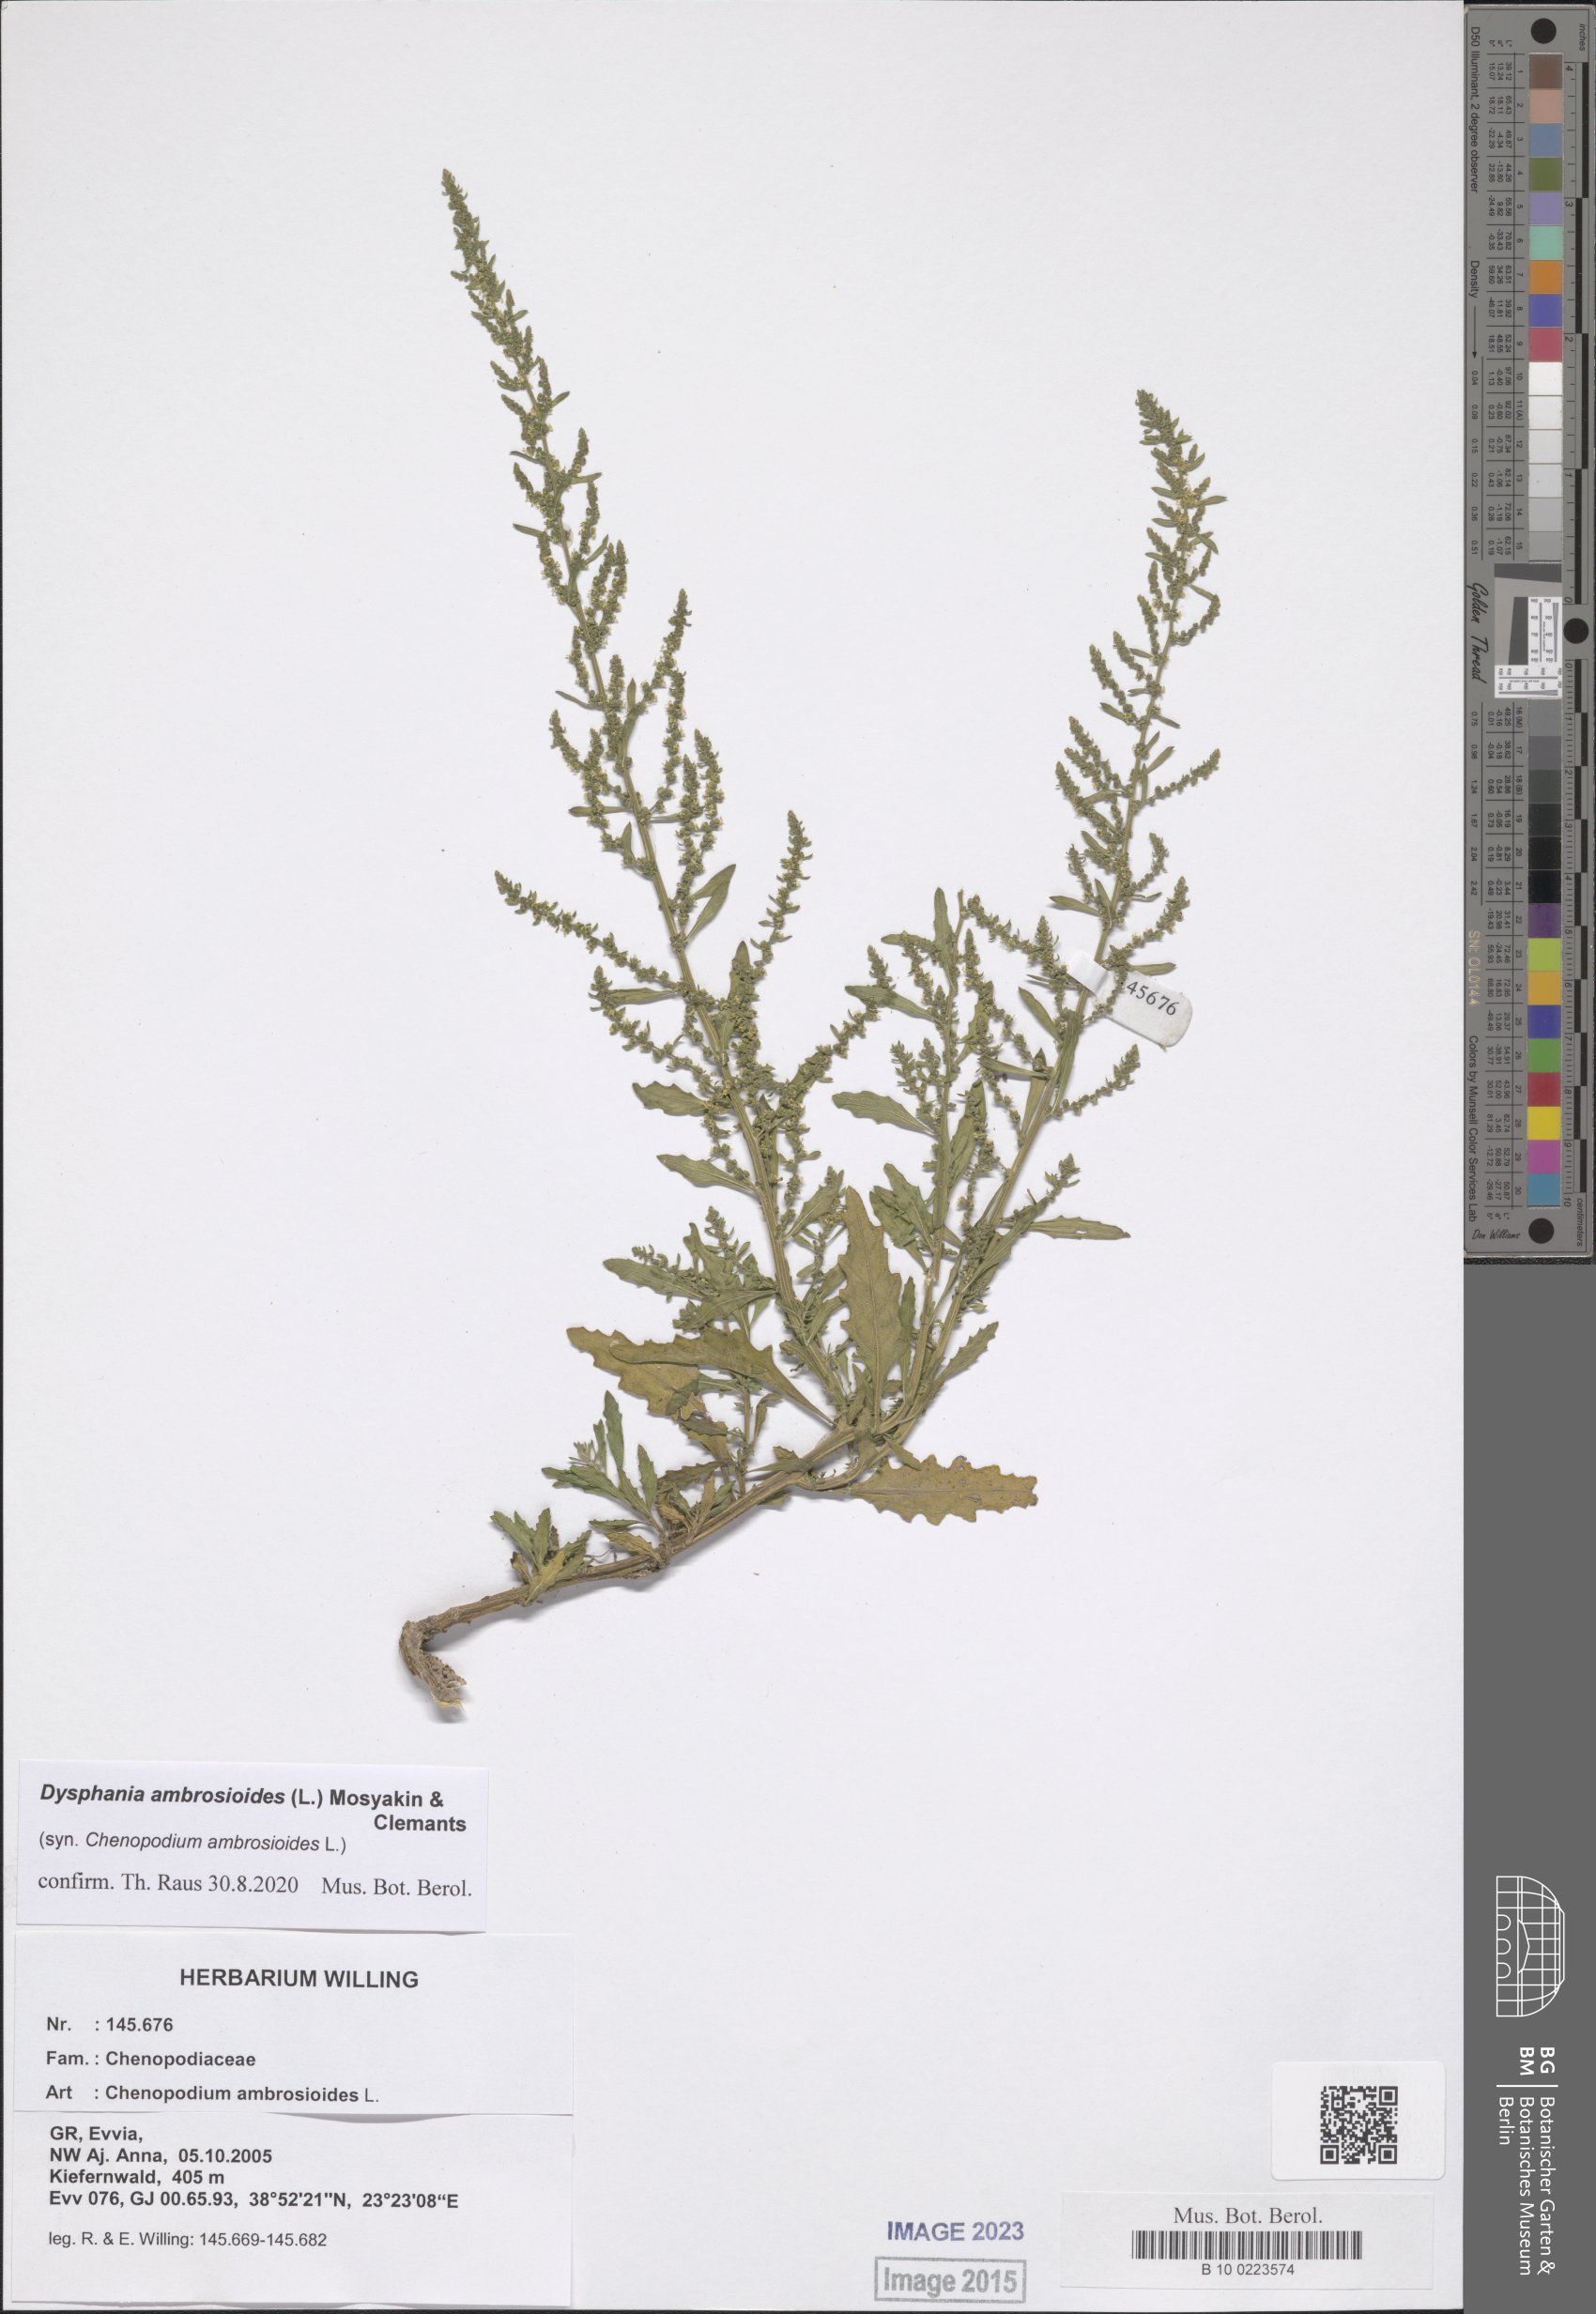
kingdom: Plantae
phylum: Tracheophyta
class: Magnoliopsida
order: Caryophyllales
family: Amaranthaceae
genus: Dysphania
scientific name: Dysphania ambrosioides
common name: Wormseed
